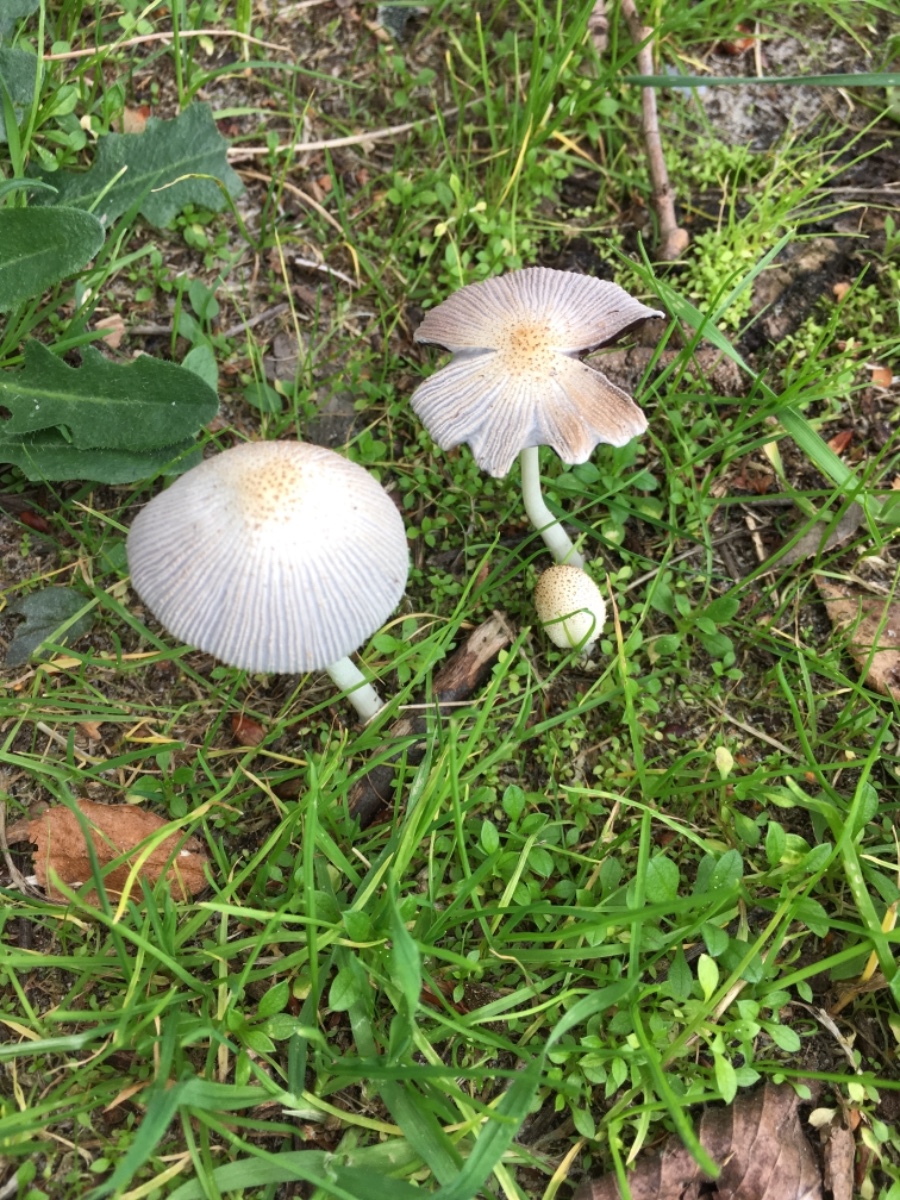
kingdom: Fungi
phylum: Basidiomycota
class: Agaricomycetes
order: Agaricales
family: Psathyrellaceae
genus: Coprinellus
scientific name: Coprinellus
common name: blækhat
